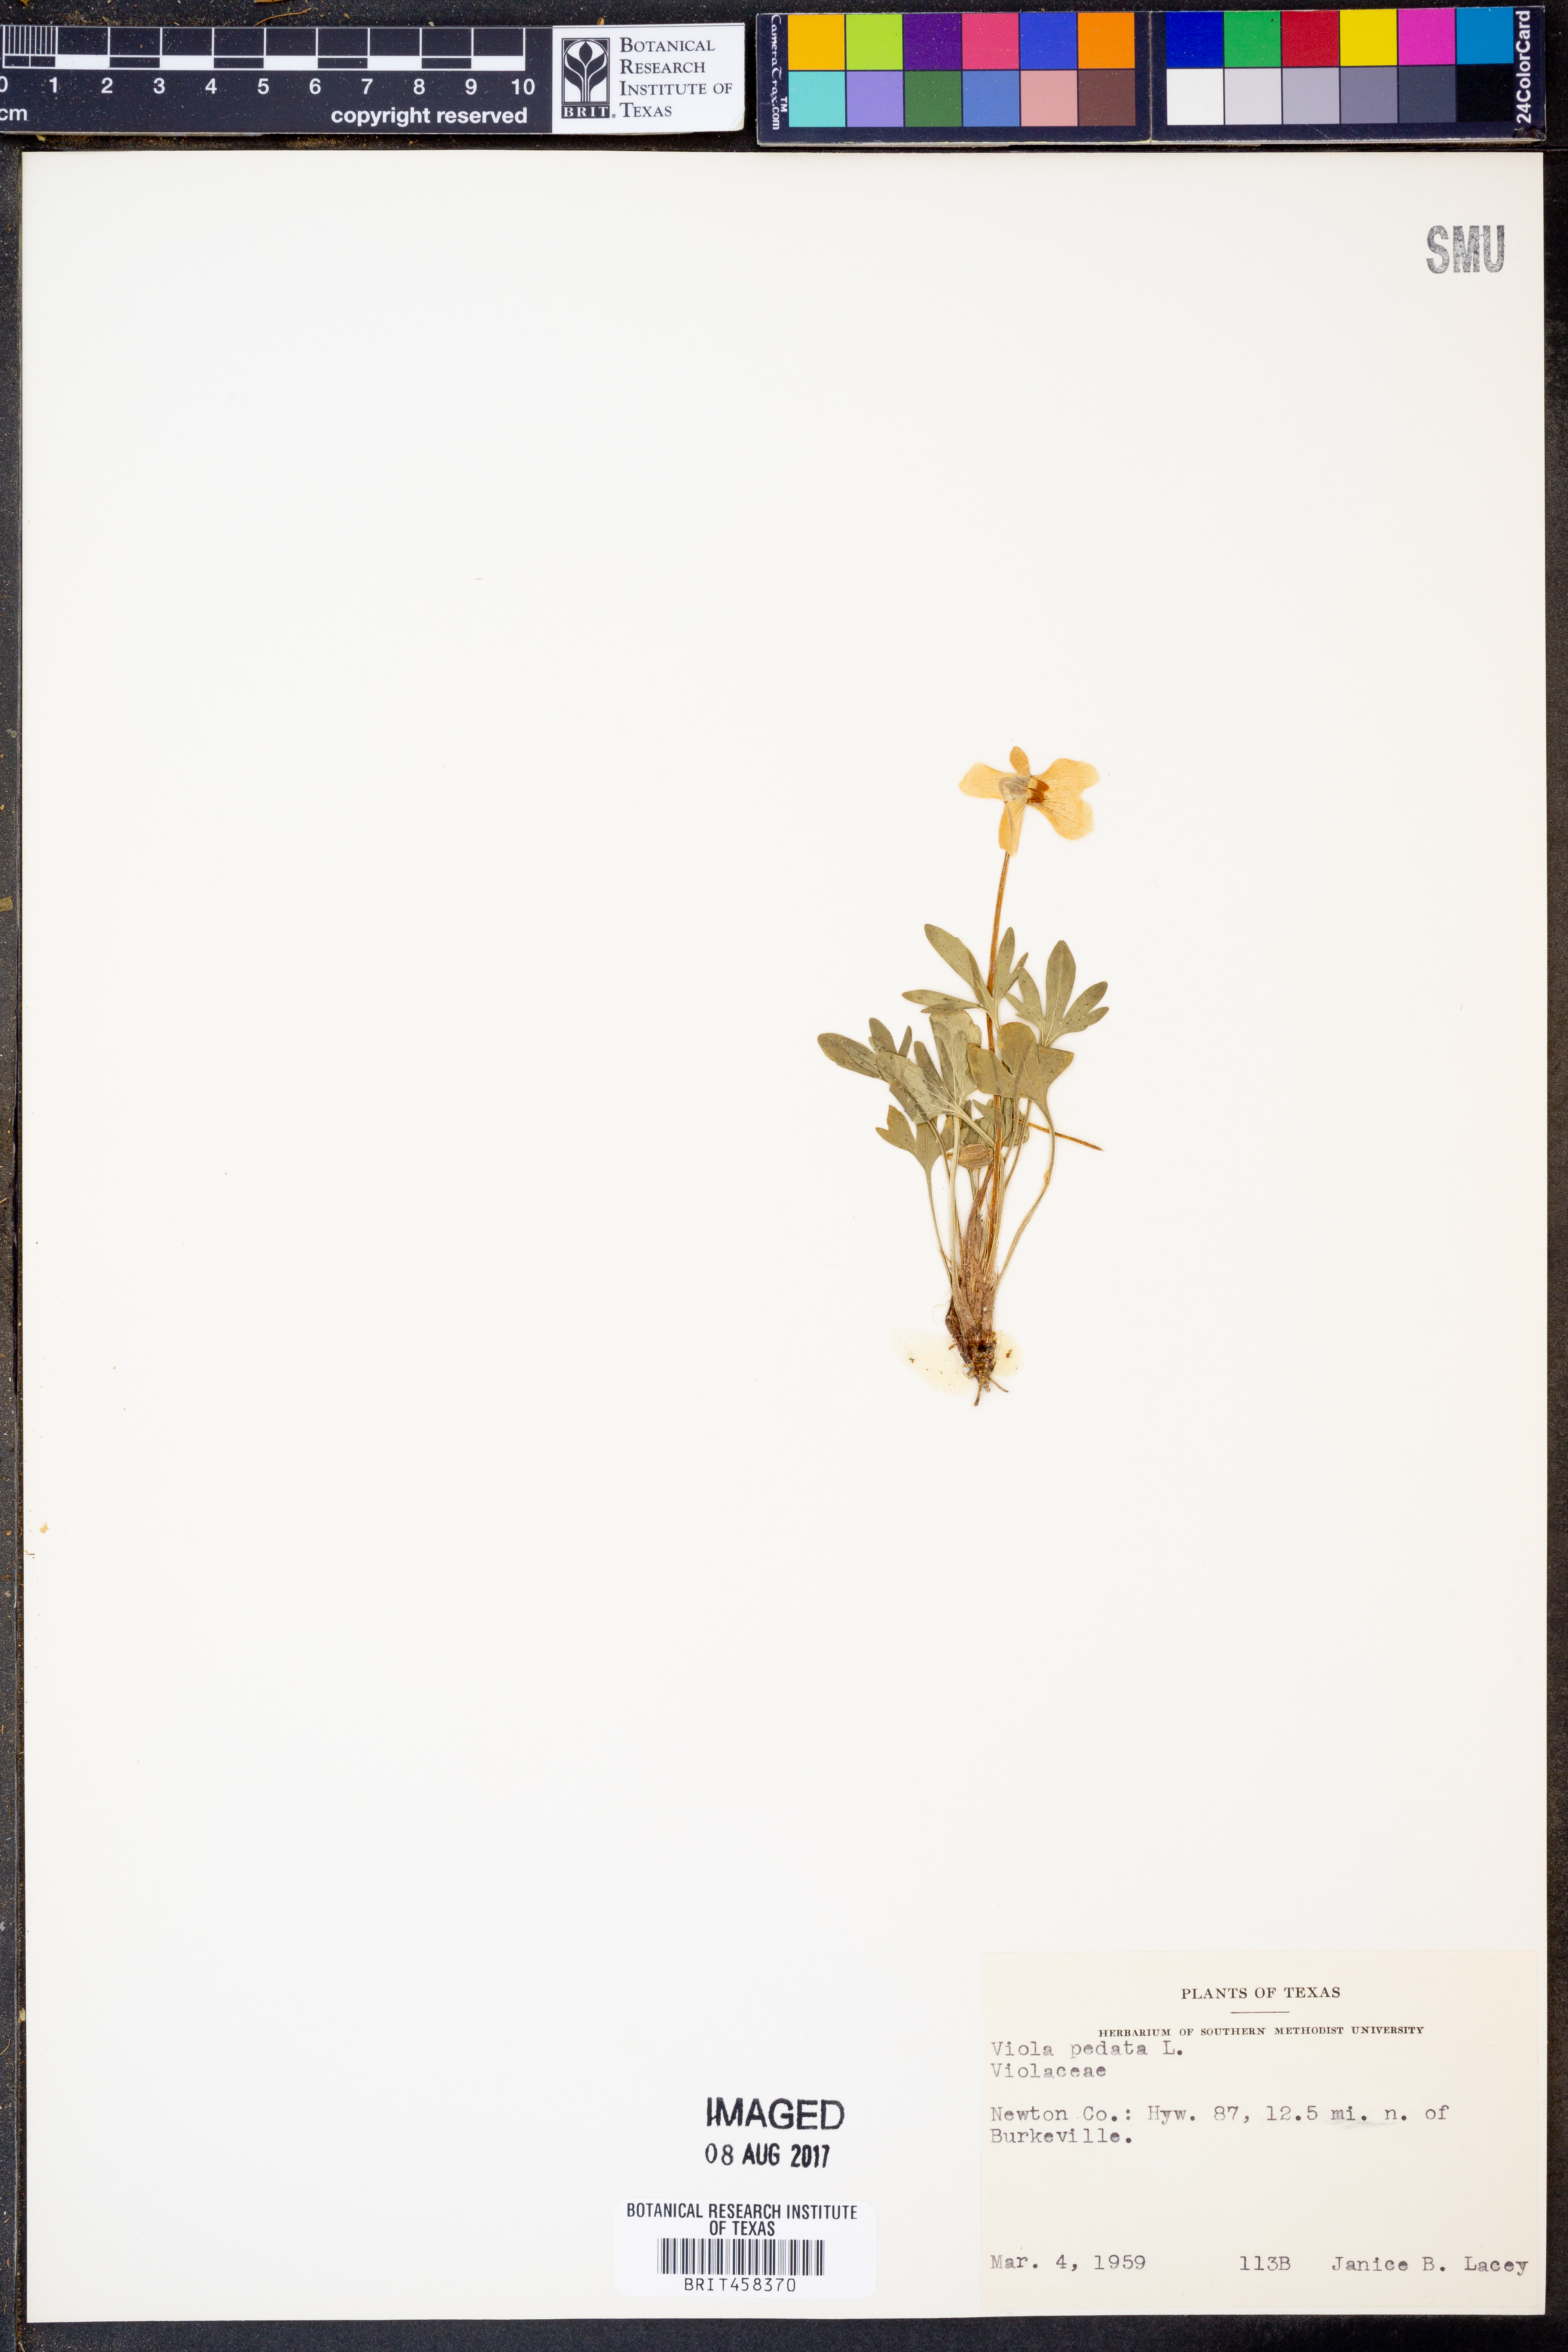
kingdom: Plantae
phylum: Tracheophyta
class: Magnoliopsida
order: Malpighiales
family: Violaceae
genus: Viola
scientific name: Viola pedata
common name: Pansy violet
